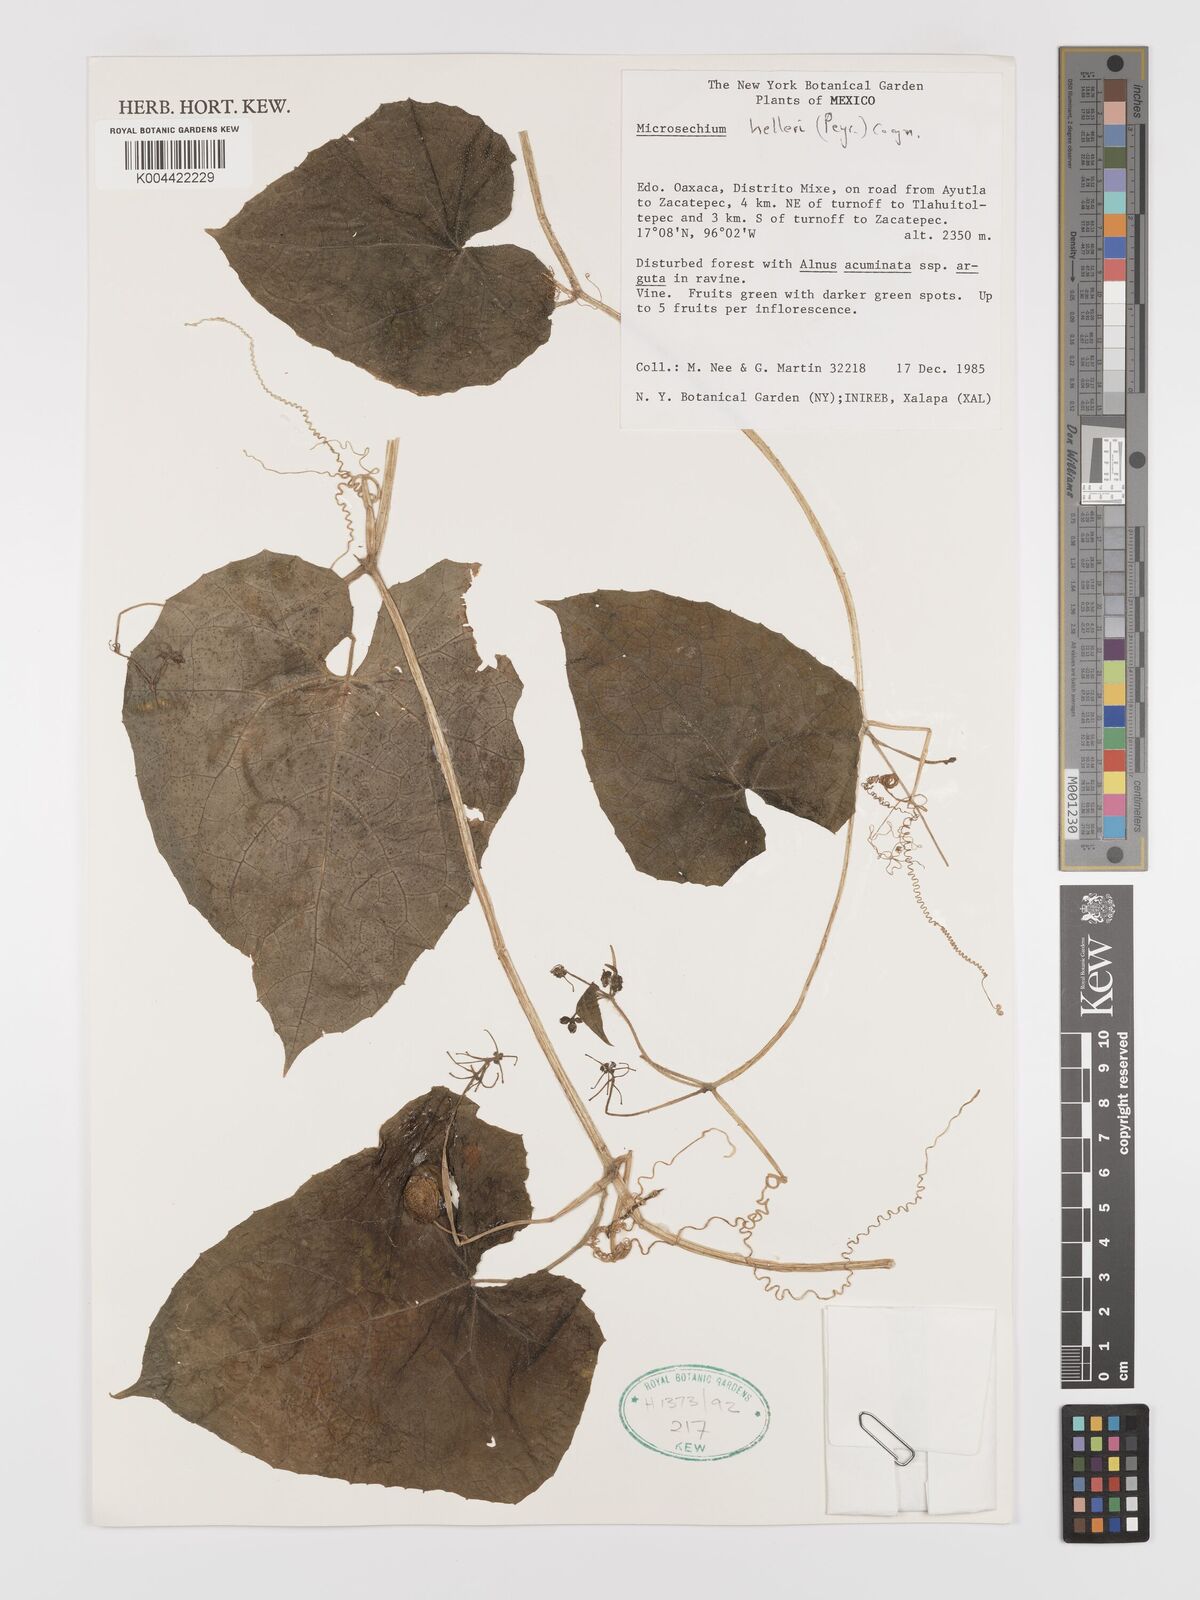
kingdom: Plantae
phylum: Tracheophyta
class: Magnoliopsida
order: Cucurbitales
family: Cucurbitaceae
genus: Microsechium
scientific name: Microsechium palmatum
